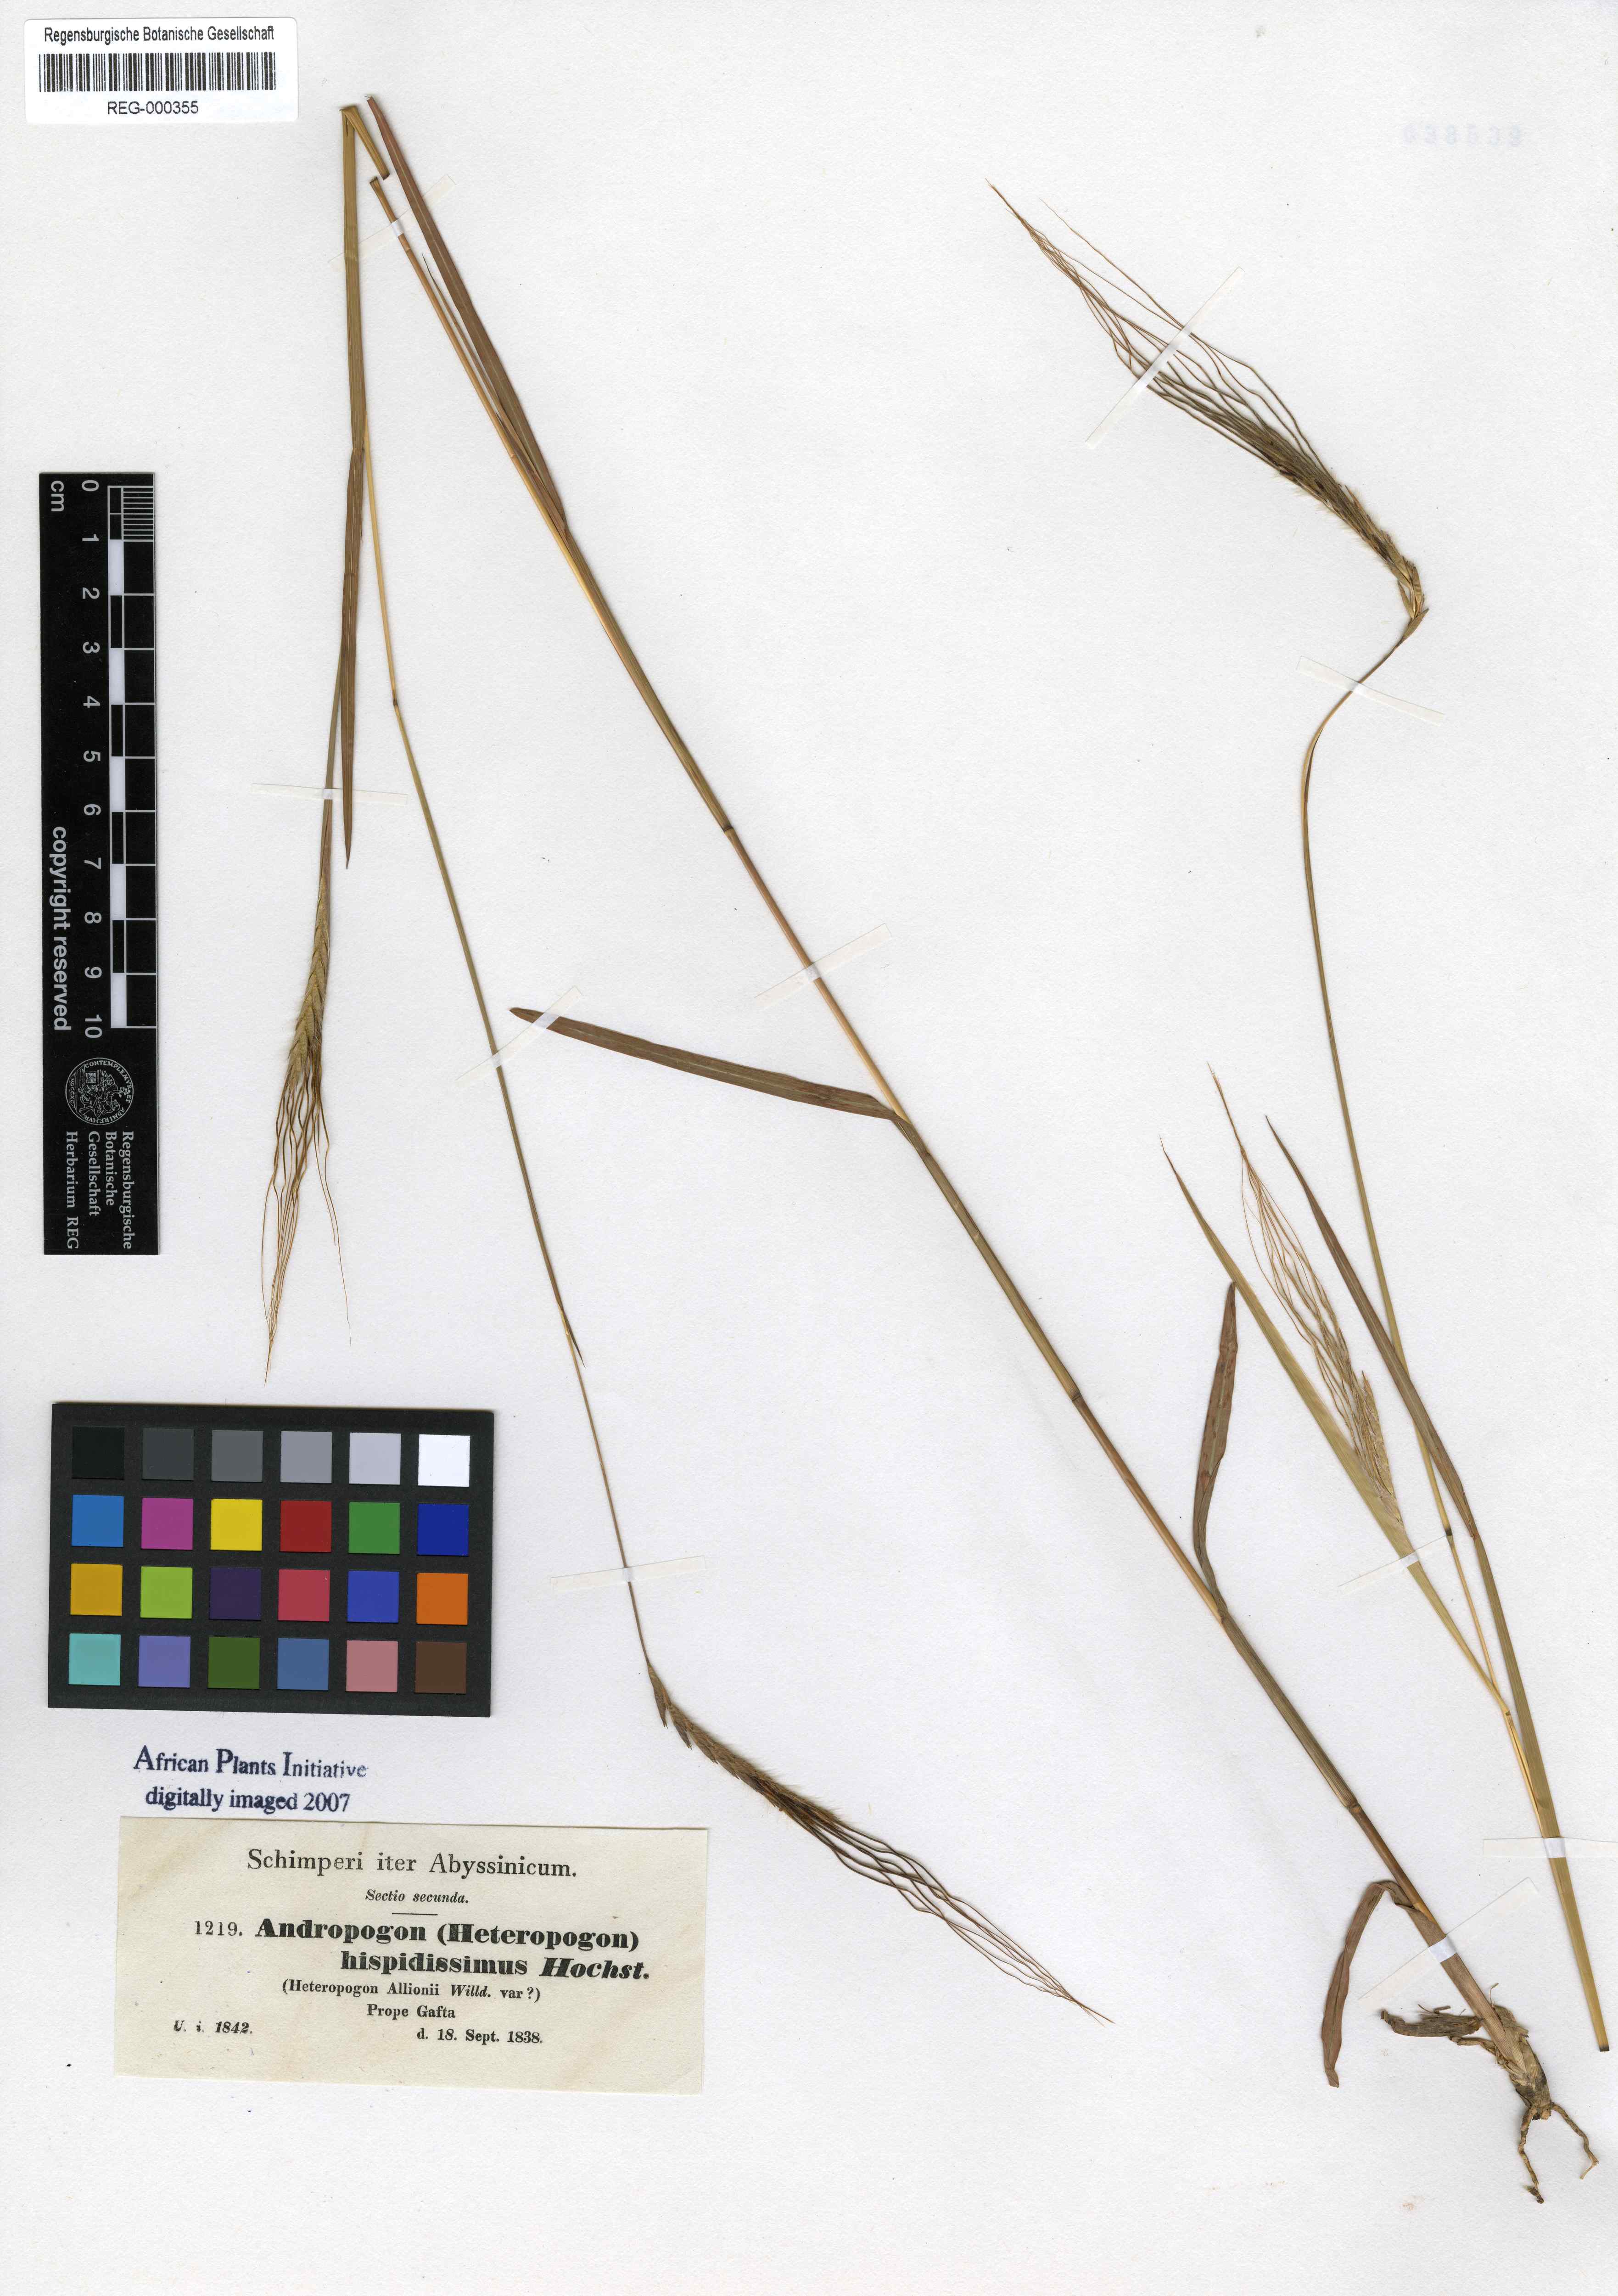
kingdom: Plantae
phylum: Tracheophyta
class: Liliopsida
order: Poales
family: Poaceae
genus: Heteropogon
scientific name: Heteropogon contortus
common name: Tanglehead
